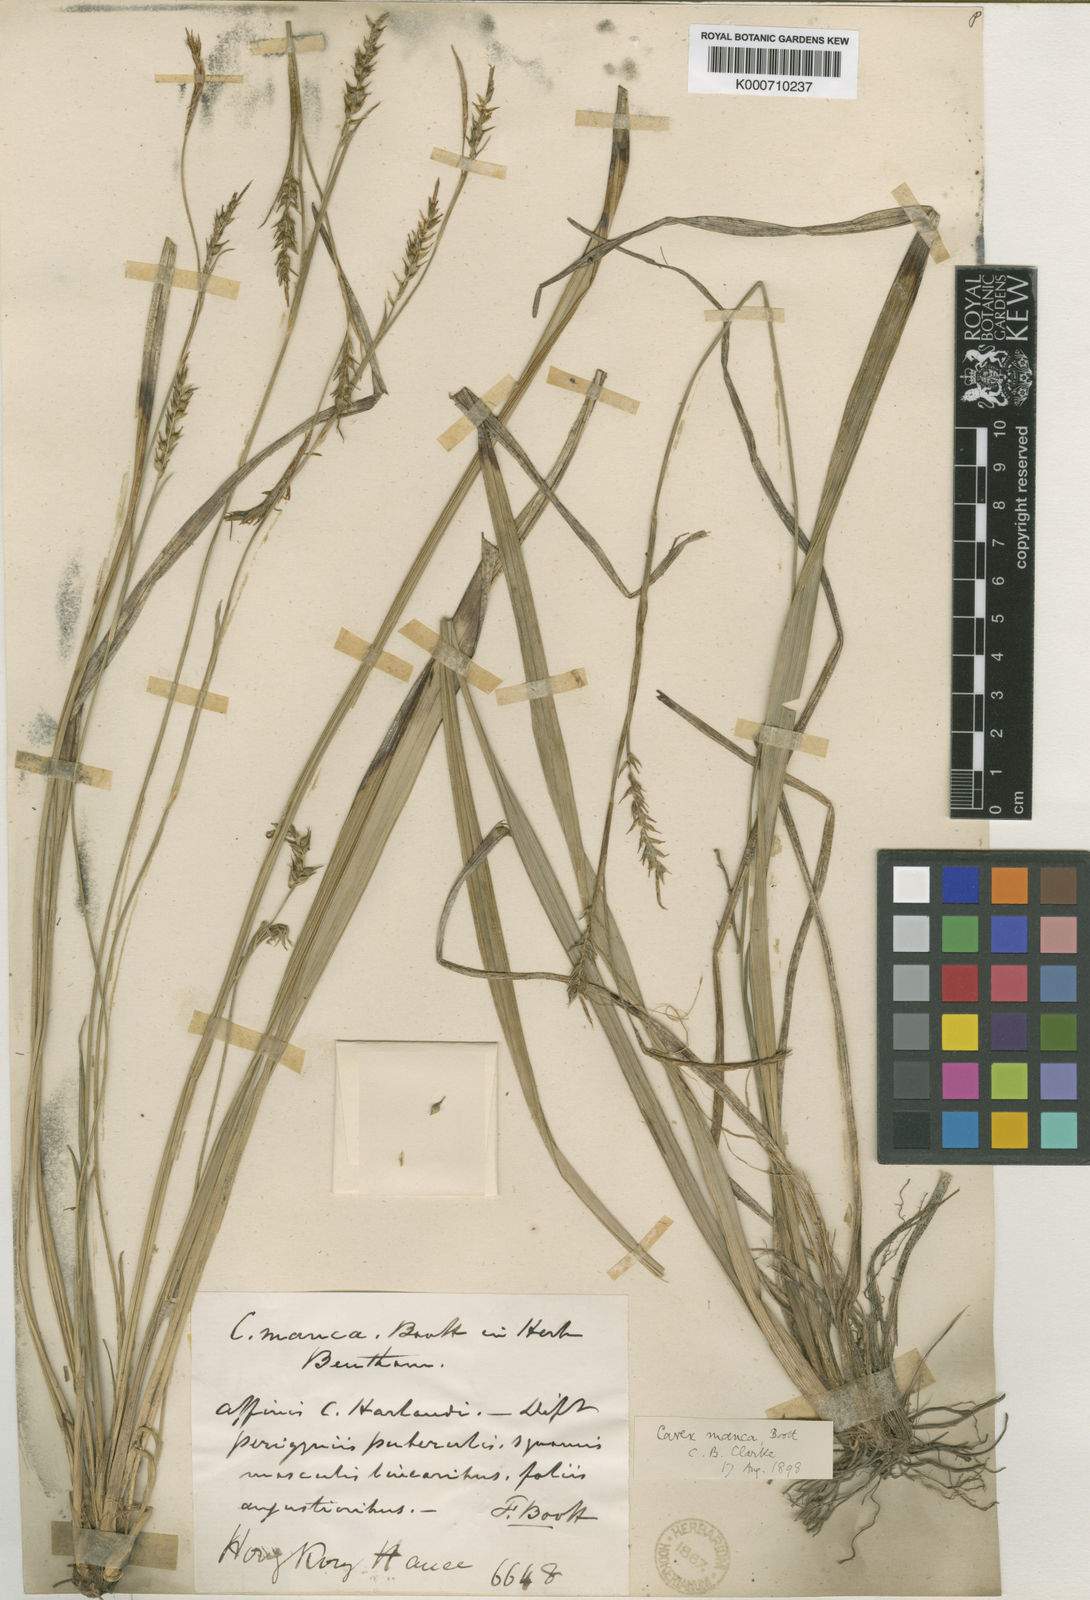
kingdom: Plantae
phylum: Tracheophyta
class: Liliopsida
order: Poales
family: Cyperaceae
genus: Carex
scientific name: Carex manca
